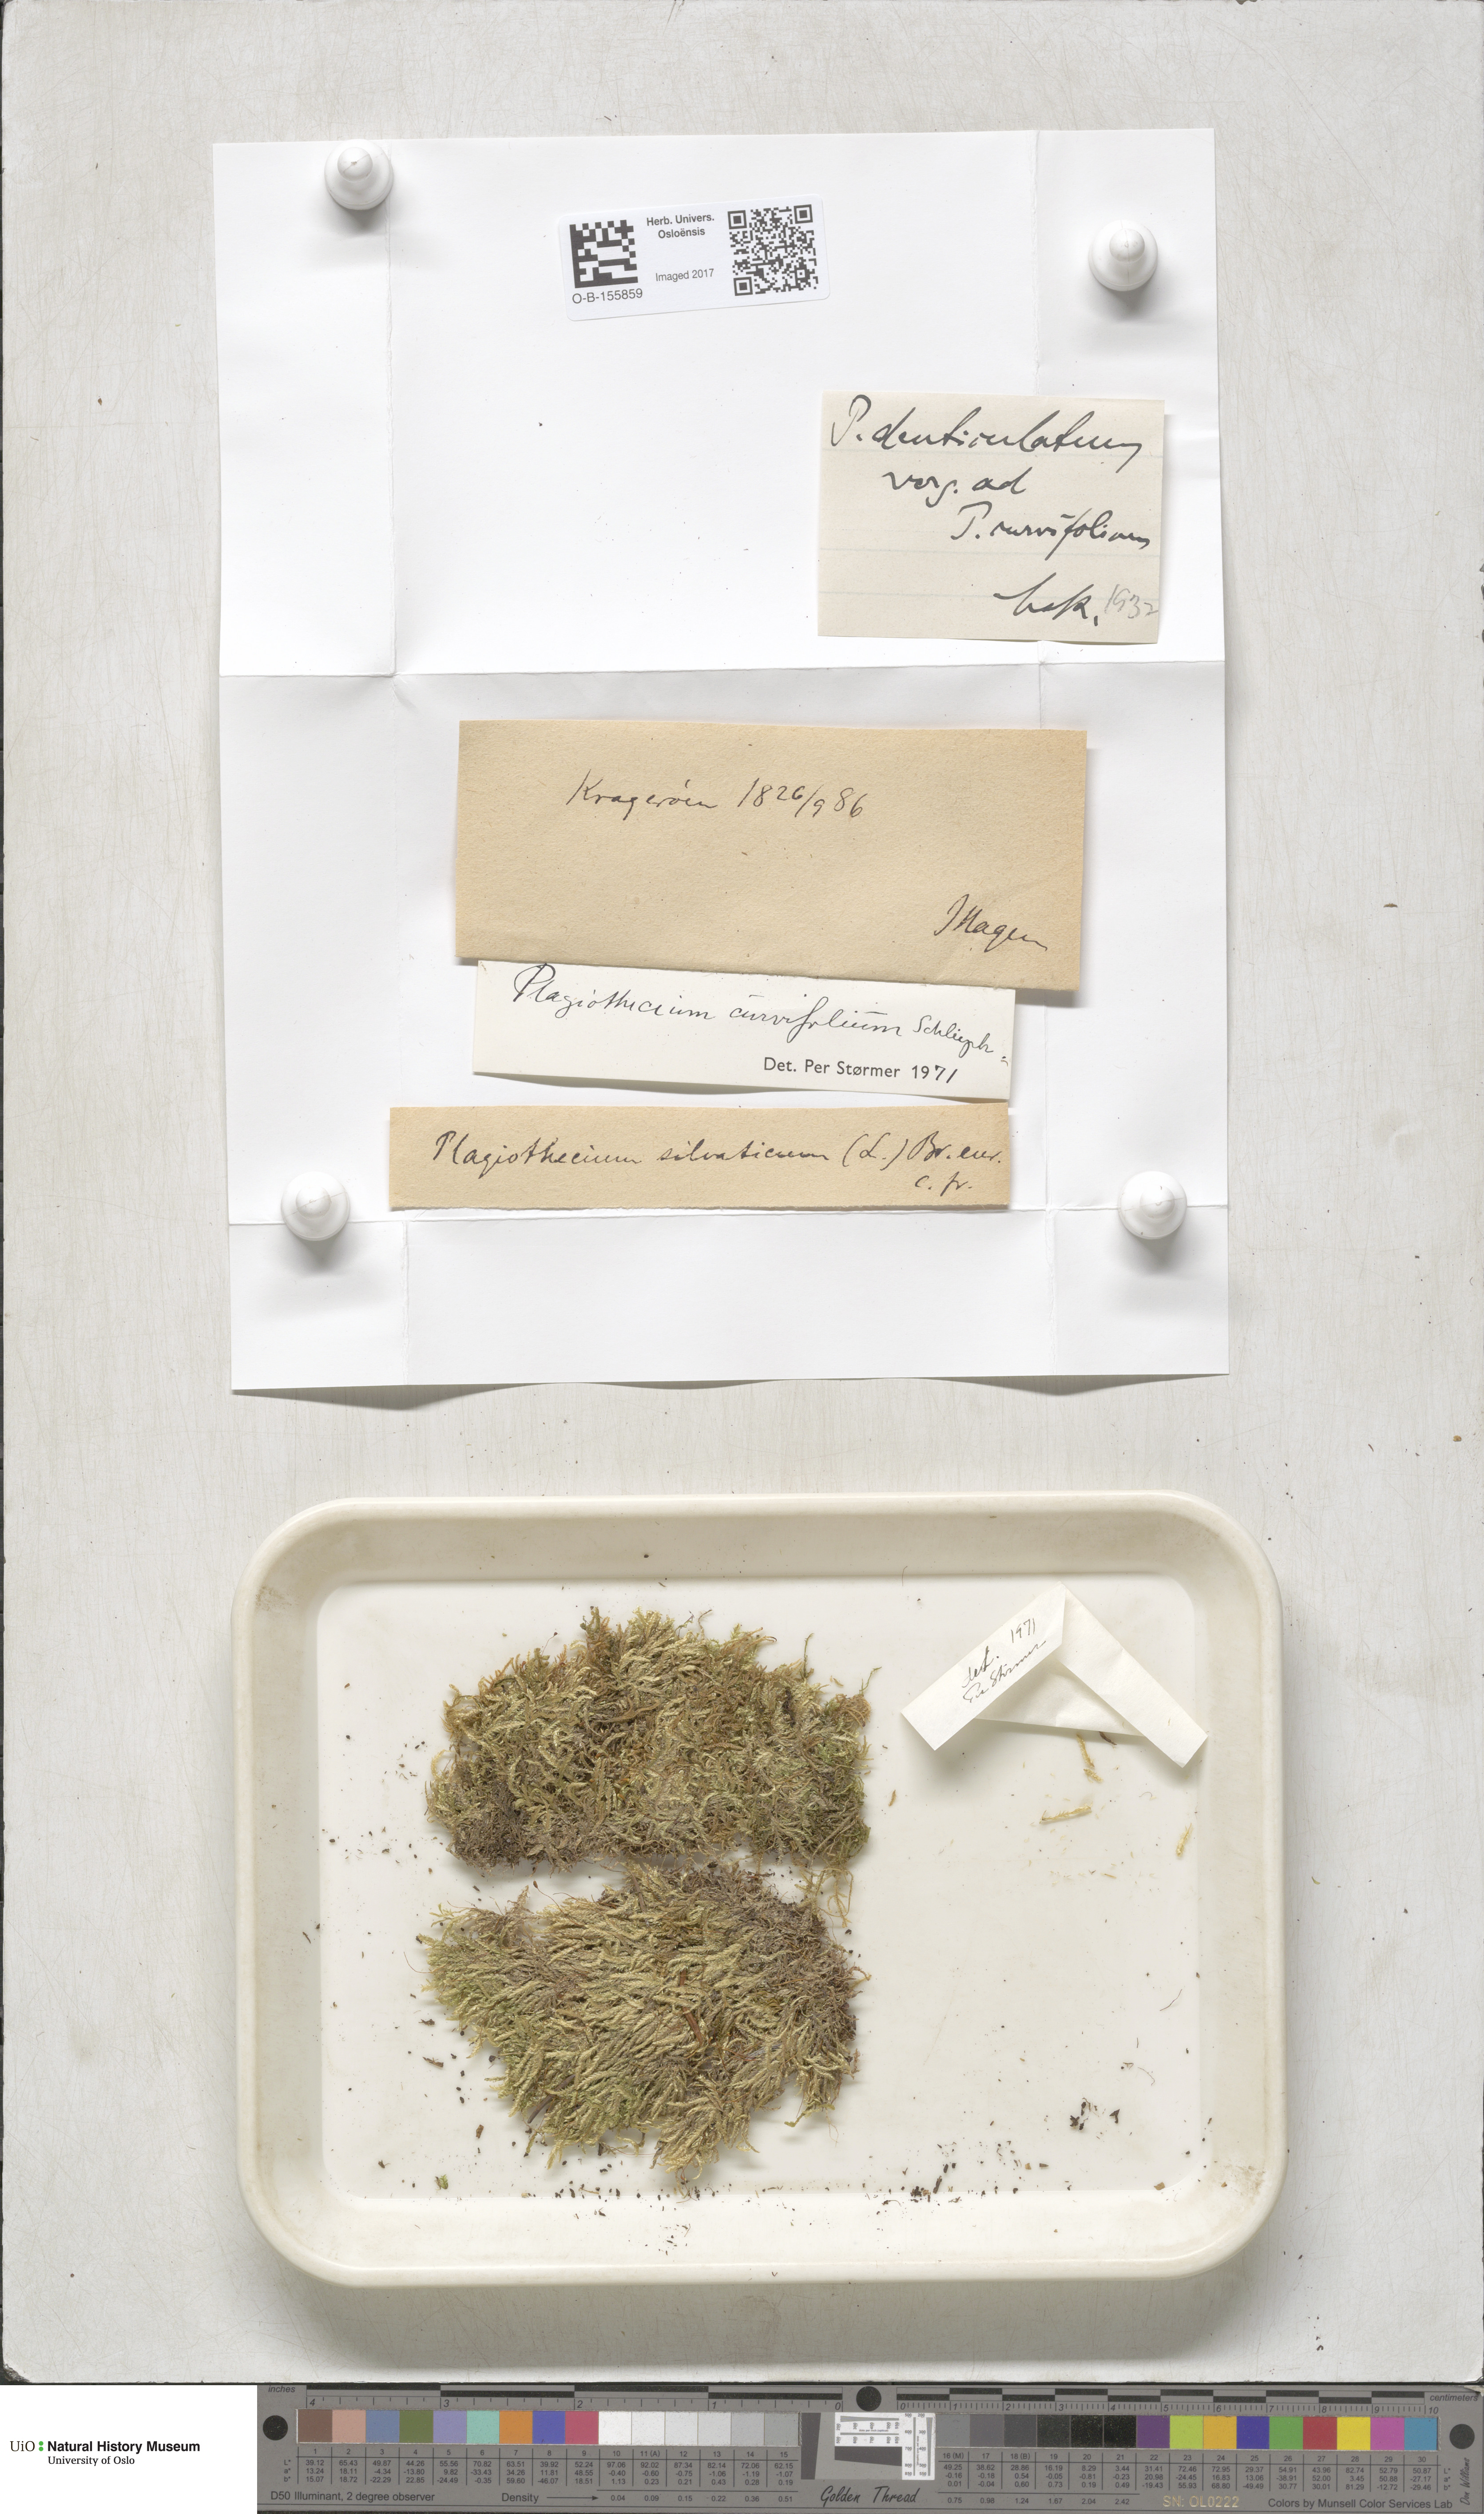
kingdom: Plantae
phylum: Bryophyta
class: Bryopsida
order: Hypnales
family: Plagiotheciaceae
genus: Plagiothecium
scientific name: Plagiothecium curvifolium
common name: Curved silk-moss
